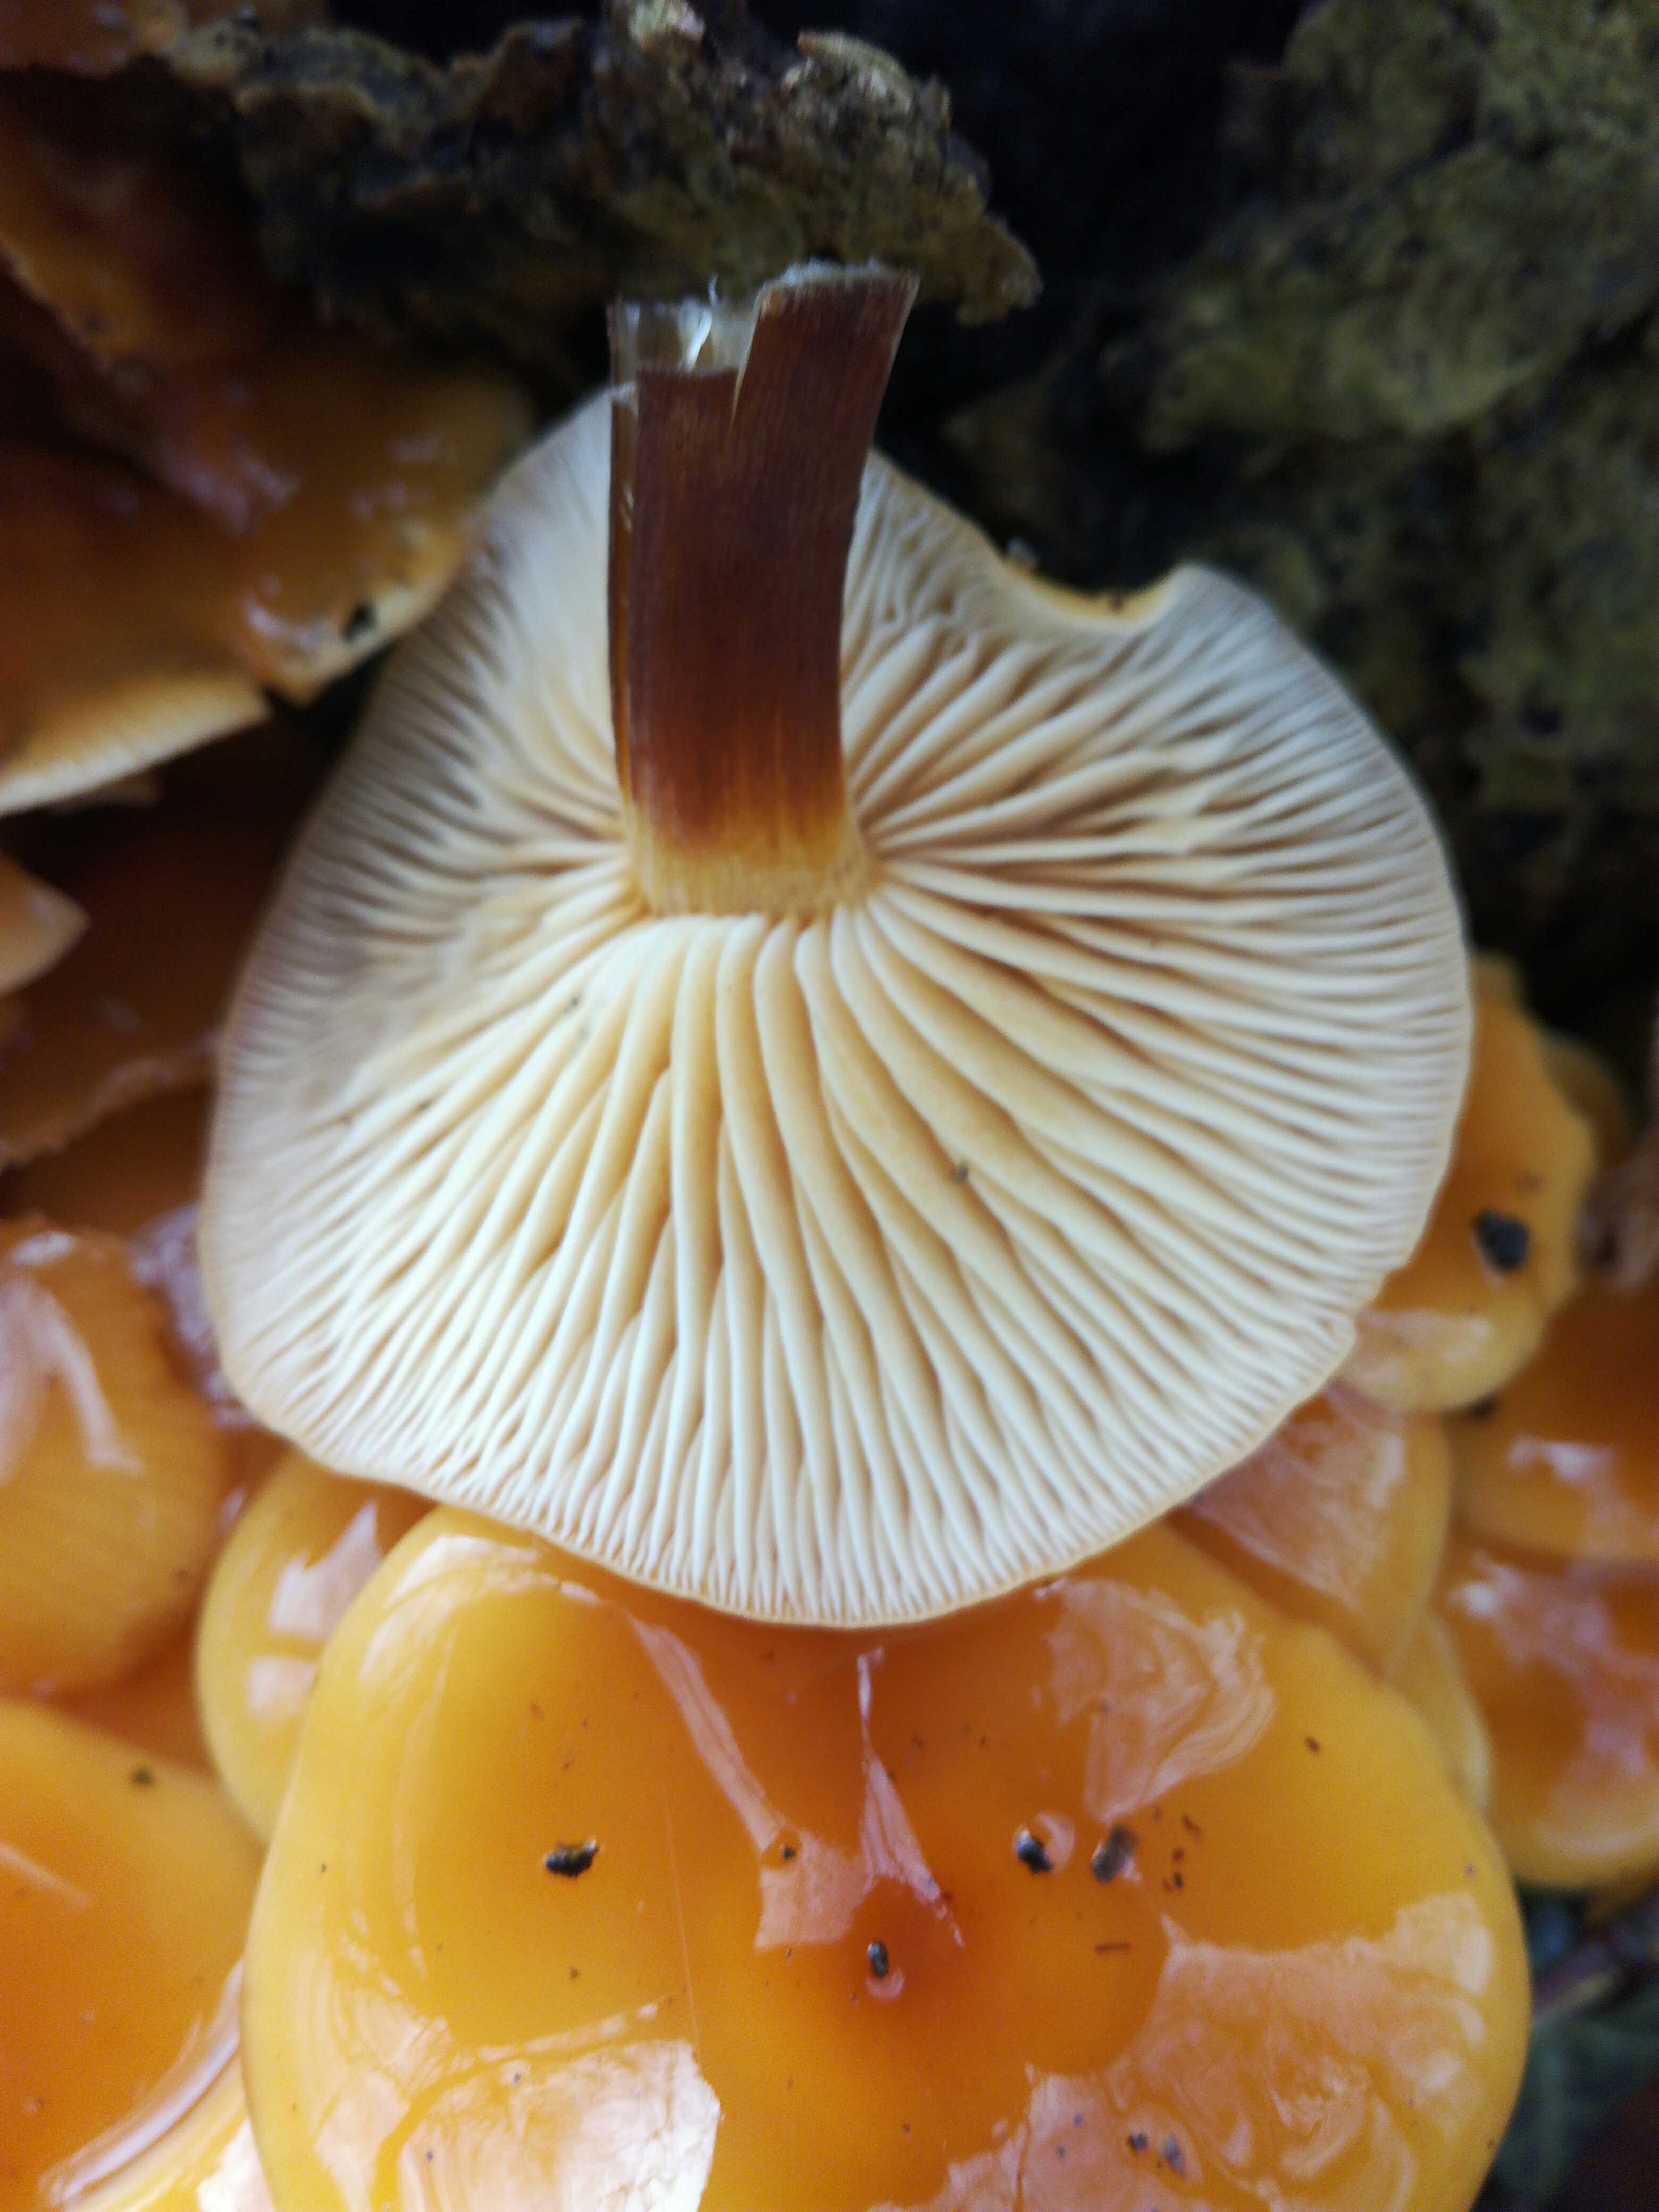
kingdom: Fungi
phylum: Basidiomycota
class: Agaricomycetes
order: Agaricales
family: Physalacriaceae
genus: Flammulina
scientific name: Flammulina
